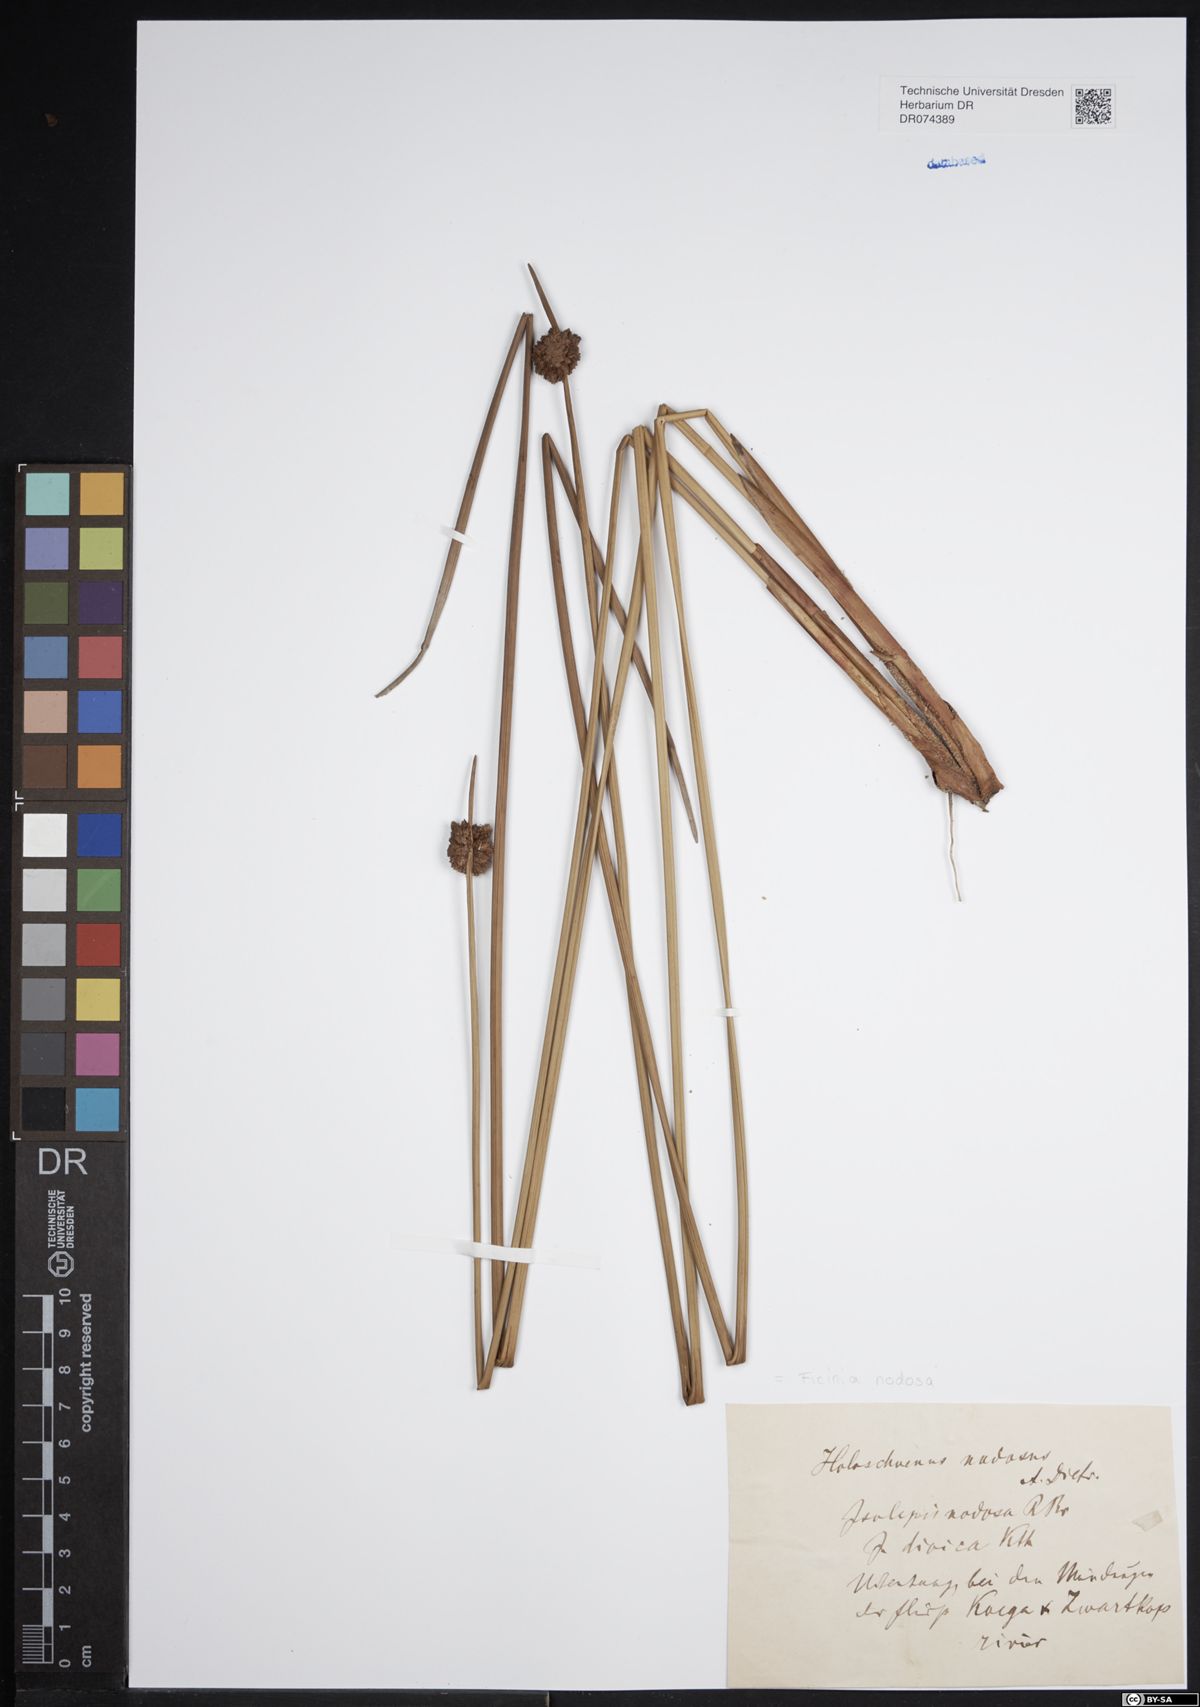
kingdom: Plantae
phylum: Tracheophyta
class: Liliopsida
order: Poales
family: Cyperaceae
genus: Ficinia
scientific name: Ficinia nodosa
